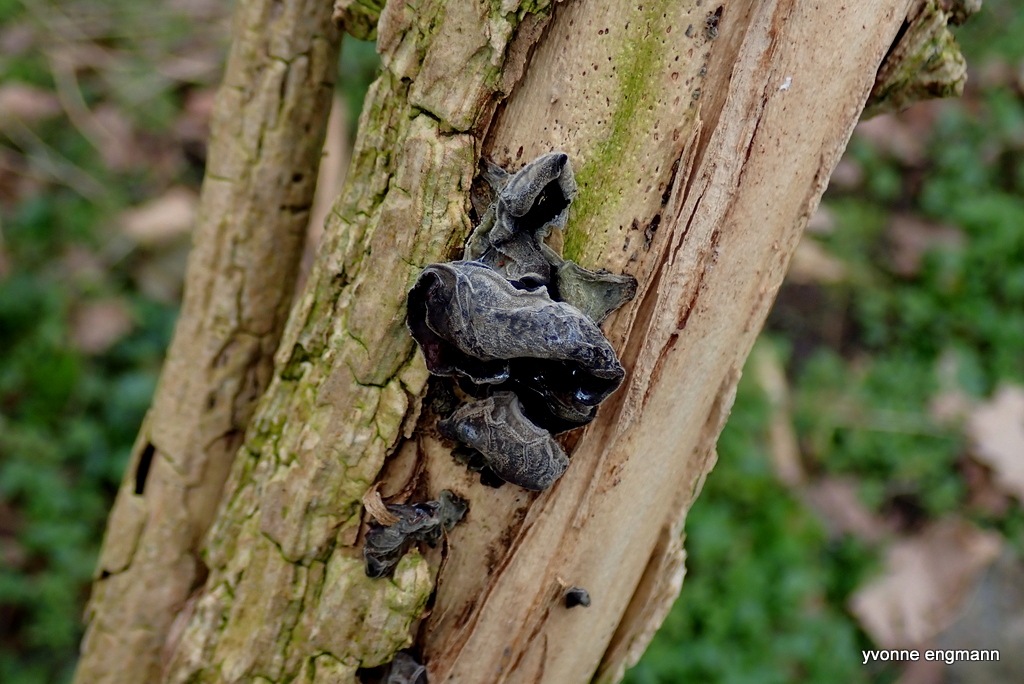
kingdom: Fungi
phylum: Basidiomycota
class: Agaricomycetes
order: Auriculariales
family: Auriculariaceae
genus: Auricularia
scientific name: Auricularia auricula-judae
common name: almindelig judasøre
